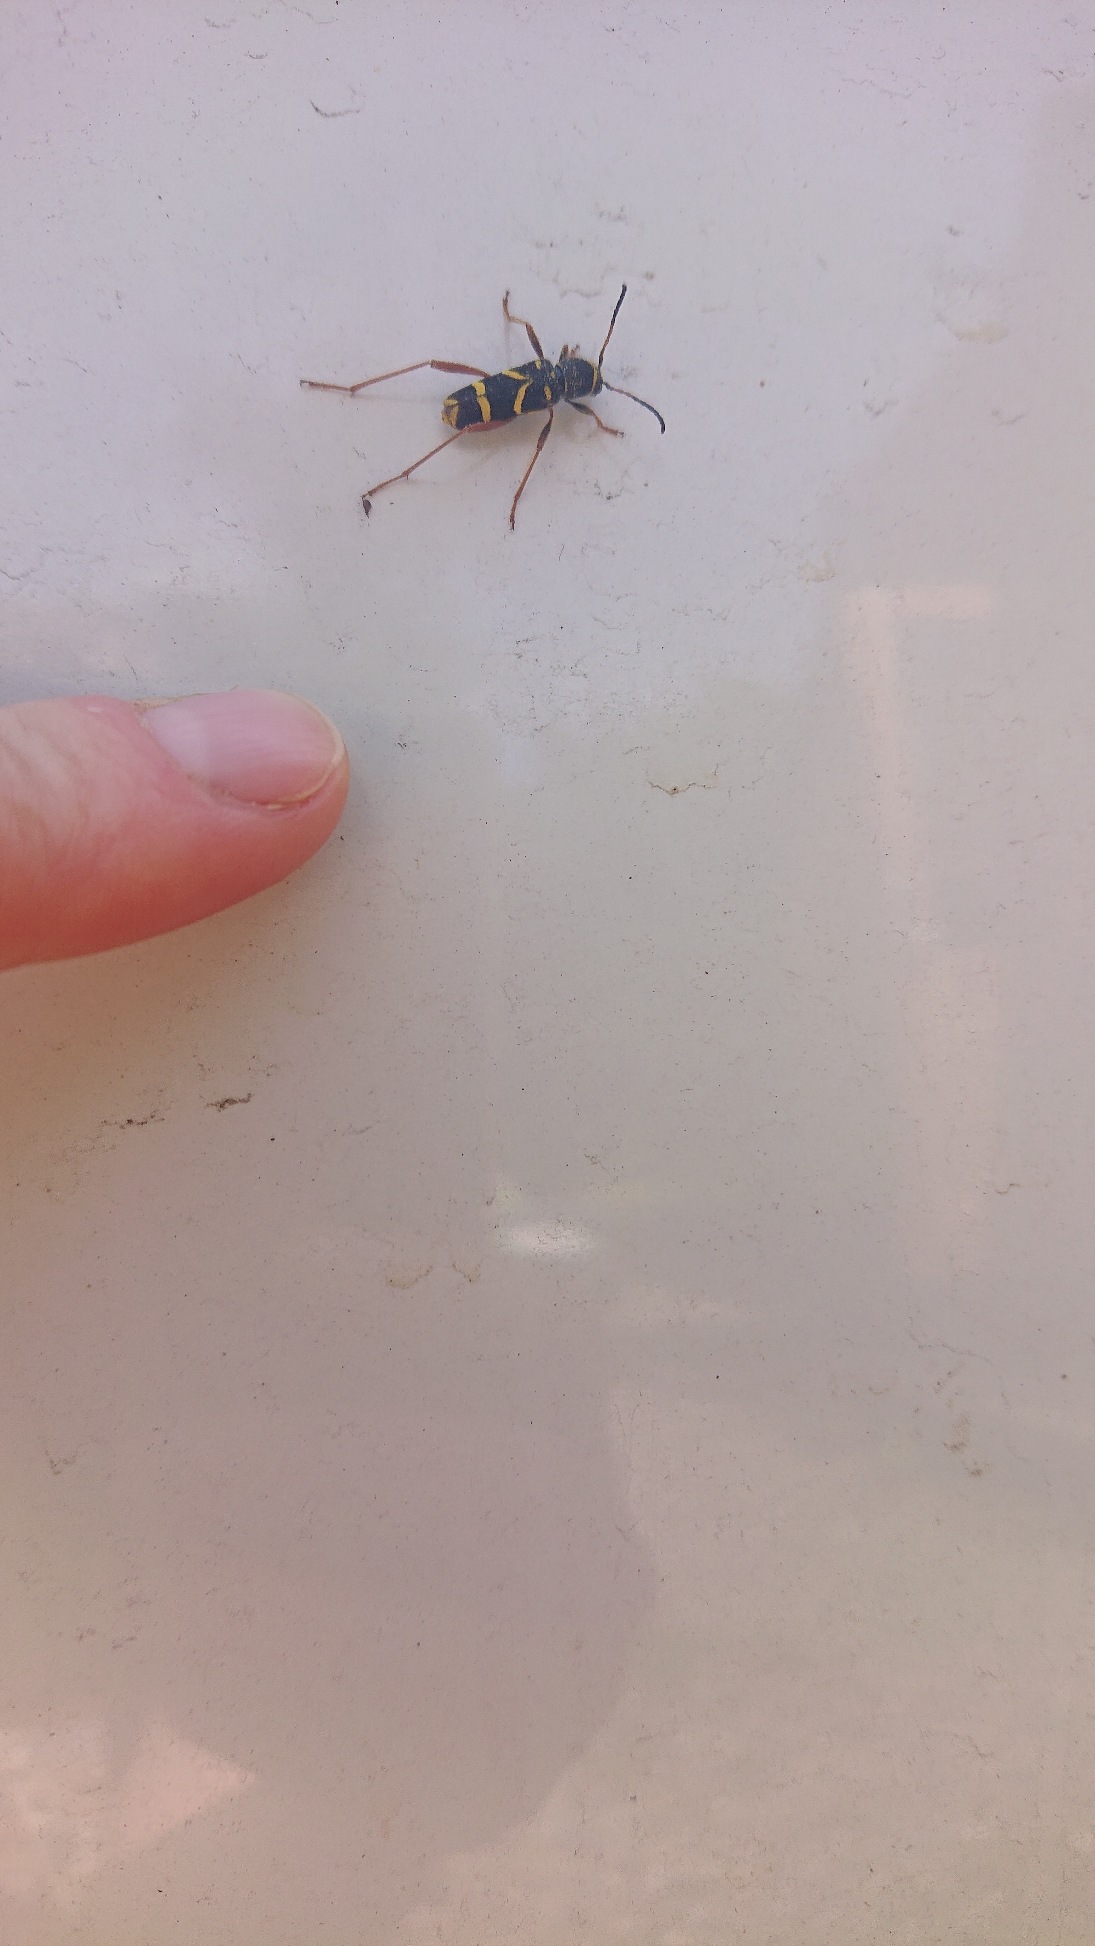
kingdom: Animalia
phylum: Arthropoda
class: Insecta
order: Coleoptera
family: Cerambycidae
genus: Clytus
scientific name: Clytus arietis
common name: Lille hvepsebuk
